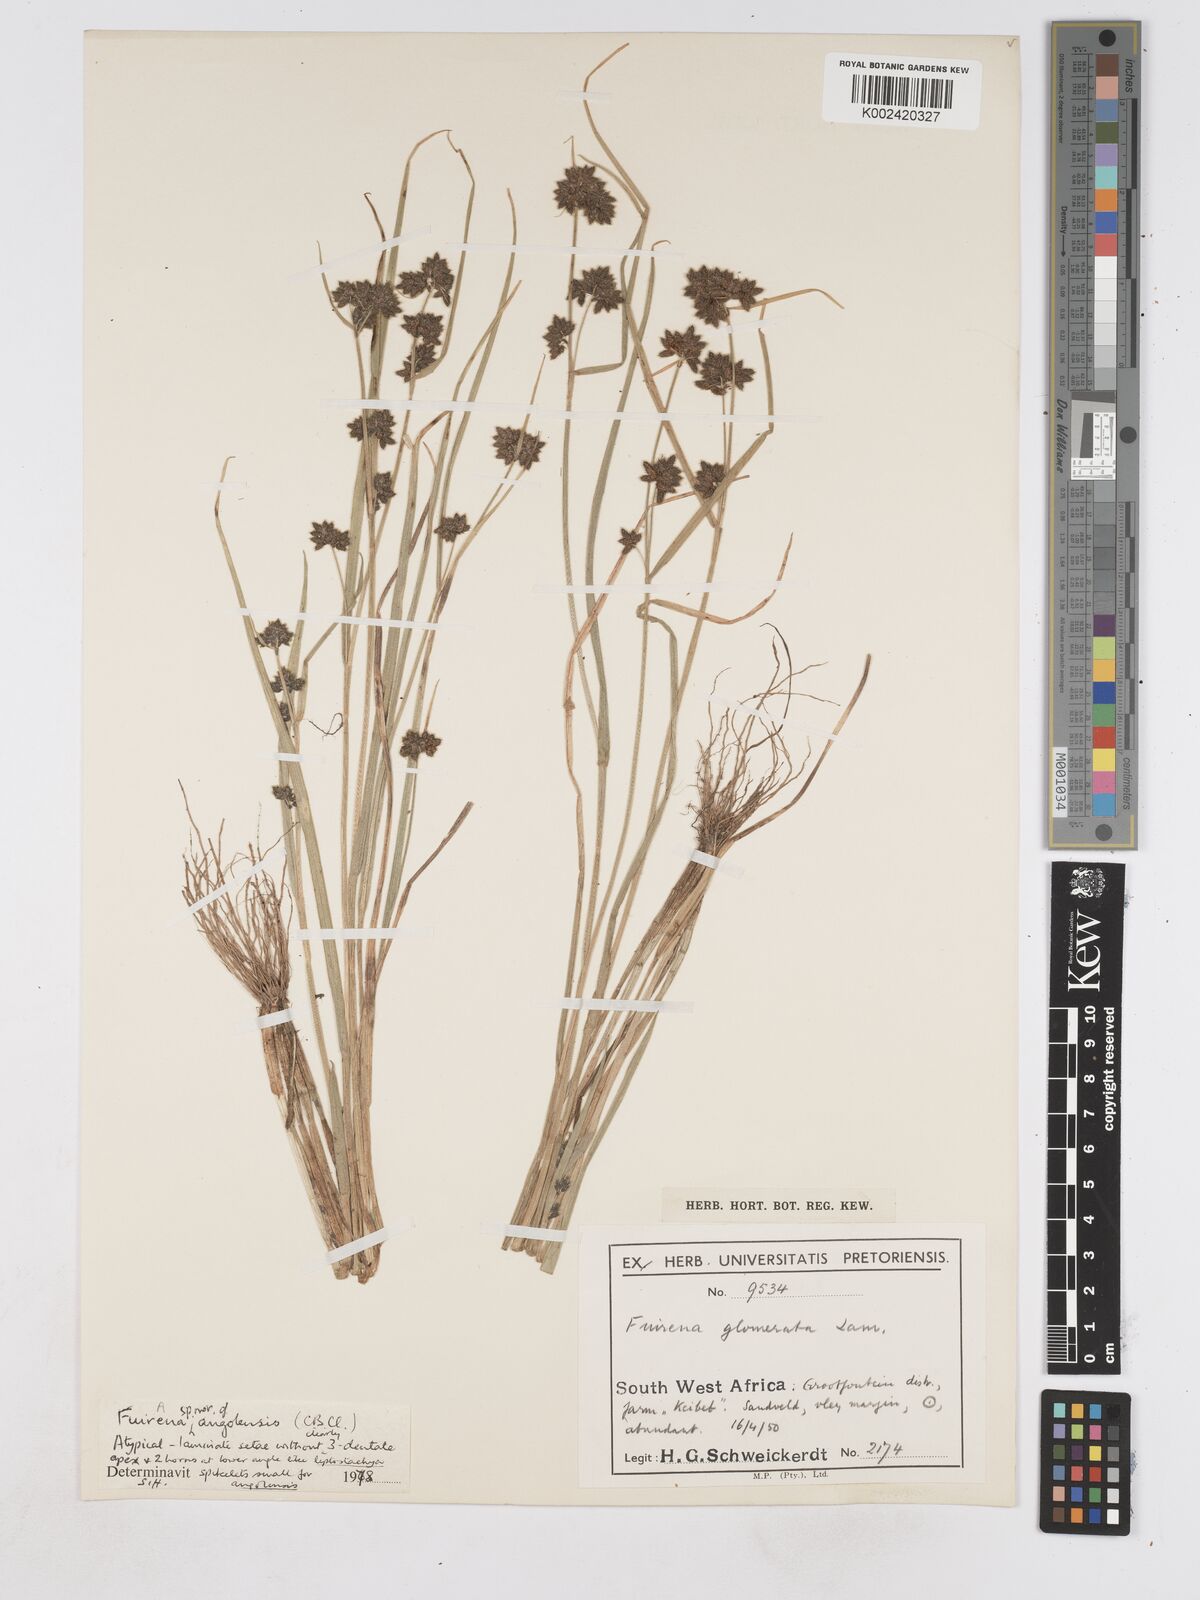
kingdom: Plantae
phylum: Tracheophyta
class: Liliopsida
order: Poales
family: Cyperaceae
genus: Fuirena
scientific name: Fuirena angolensis
